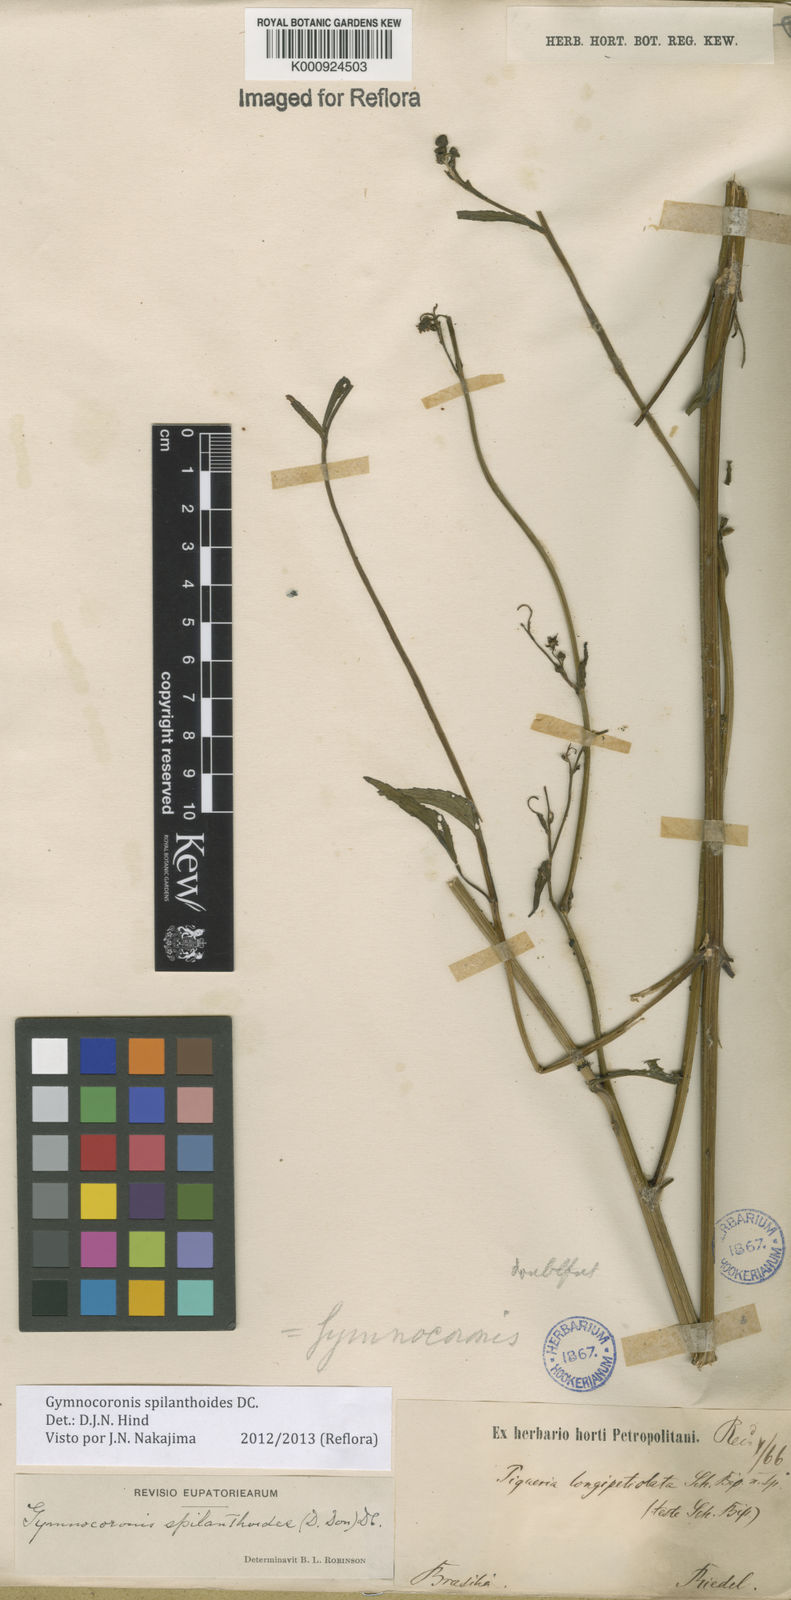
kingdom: Plantae
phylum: Tracheophyta
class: Magnoliopsida
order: Asterales
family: Asteraceae
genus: Gymnocoronis
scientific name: Gymnocoronis spilanthoides
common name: Senegal teaplant
